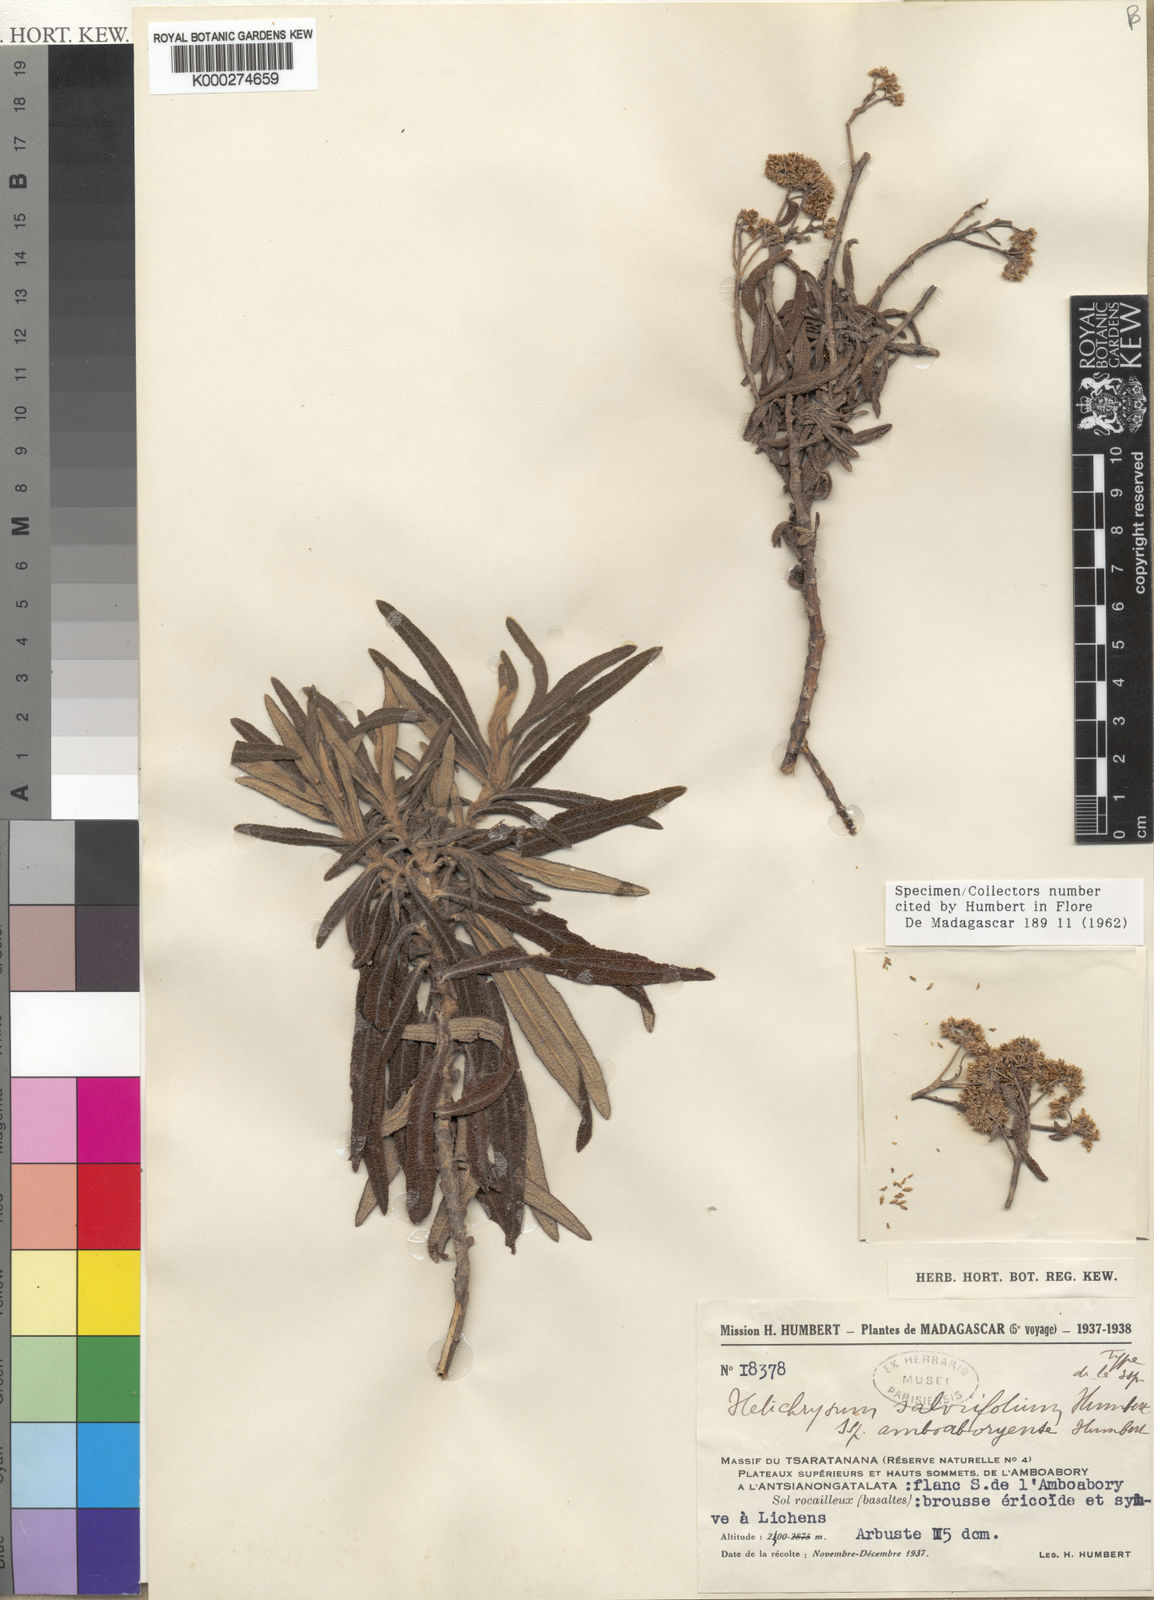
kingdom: Plantae
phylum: Tracheophyta
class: Magnoliopsida
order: Asterales
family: Asteraceae
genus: Helichrysum
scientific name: Helichrysum salviifolium
